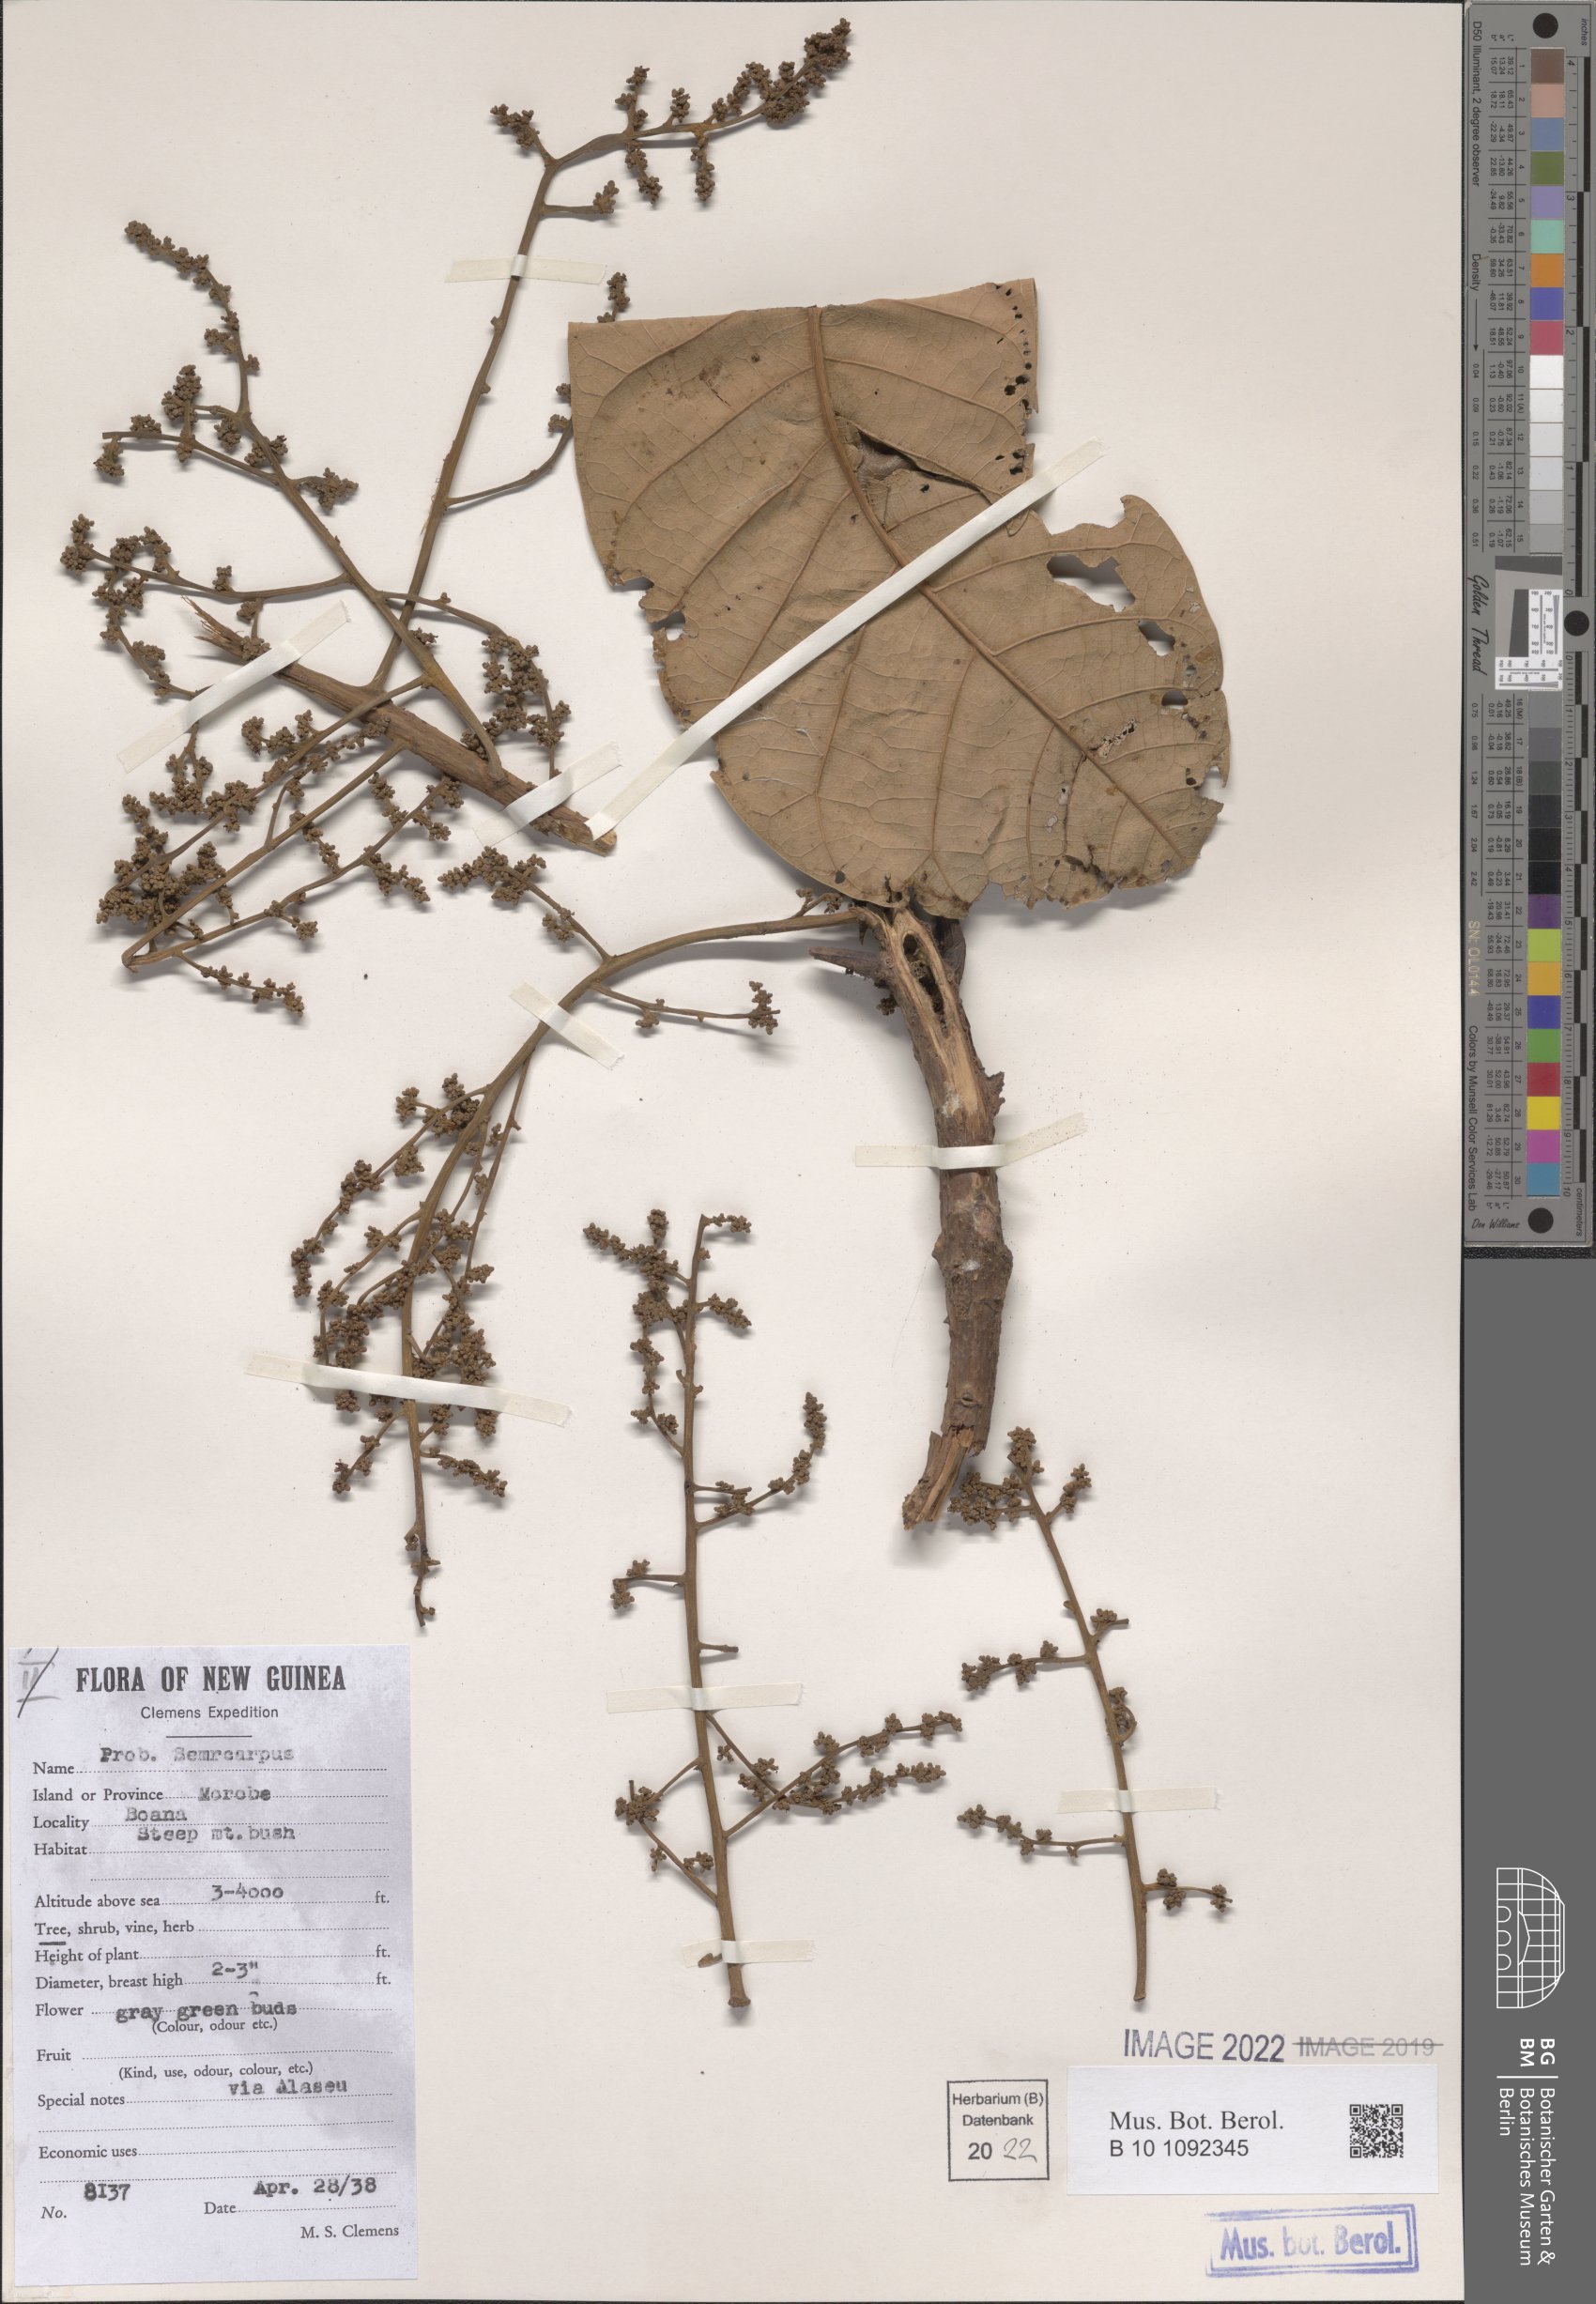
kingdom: Plantae
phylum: Tracheophyta
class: Magnoliopsida
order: Sapindales
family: Anacardiaceae
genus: Semecarpus
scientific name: Semecarpus
